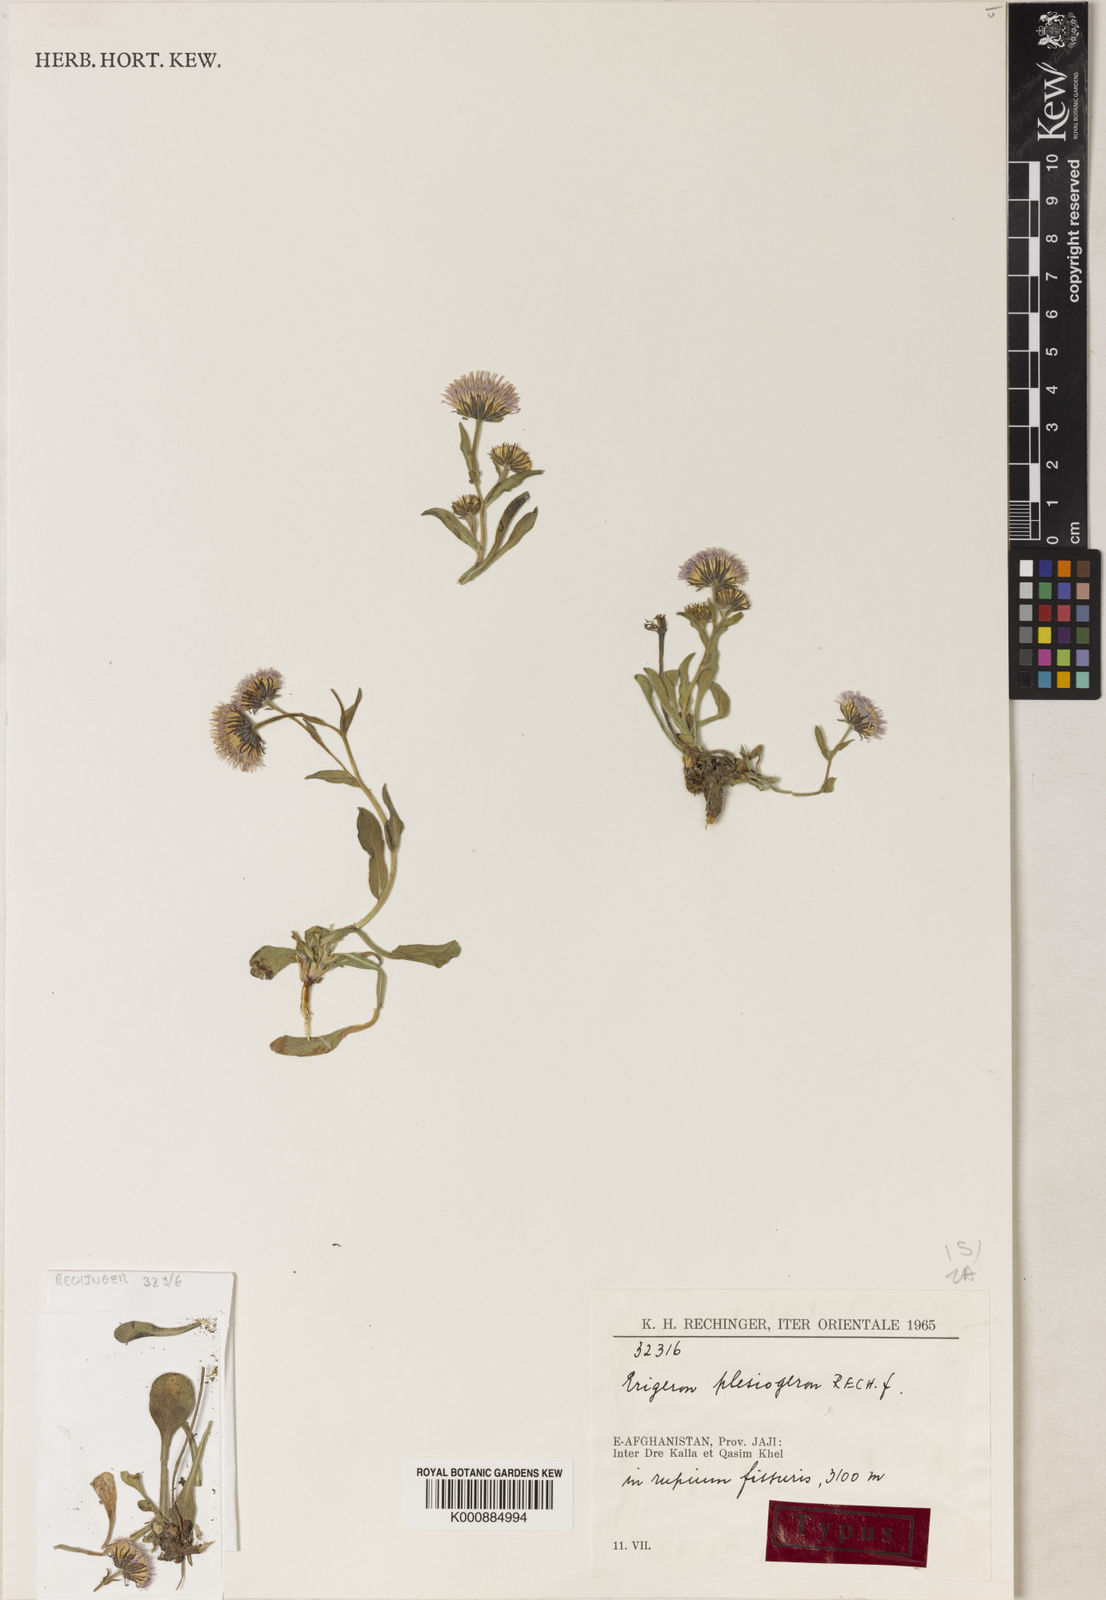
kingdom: Plantae
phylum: Tracheophyta
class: Magnoliopsida
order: Asterales
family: Asteraceae
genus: Erigeron
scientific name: Erigeron
